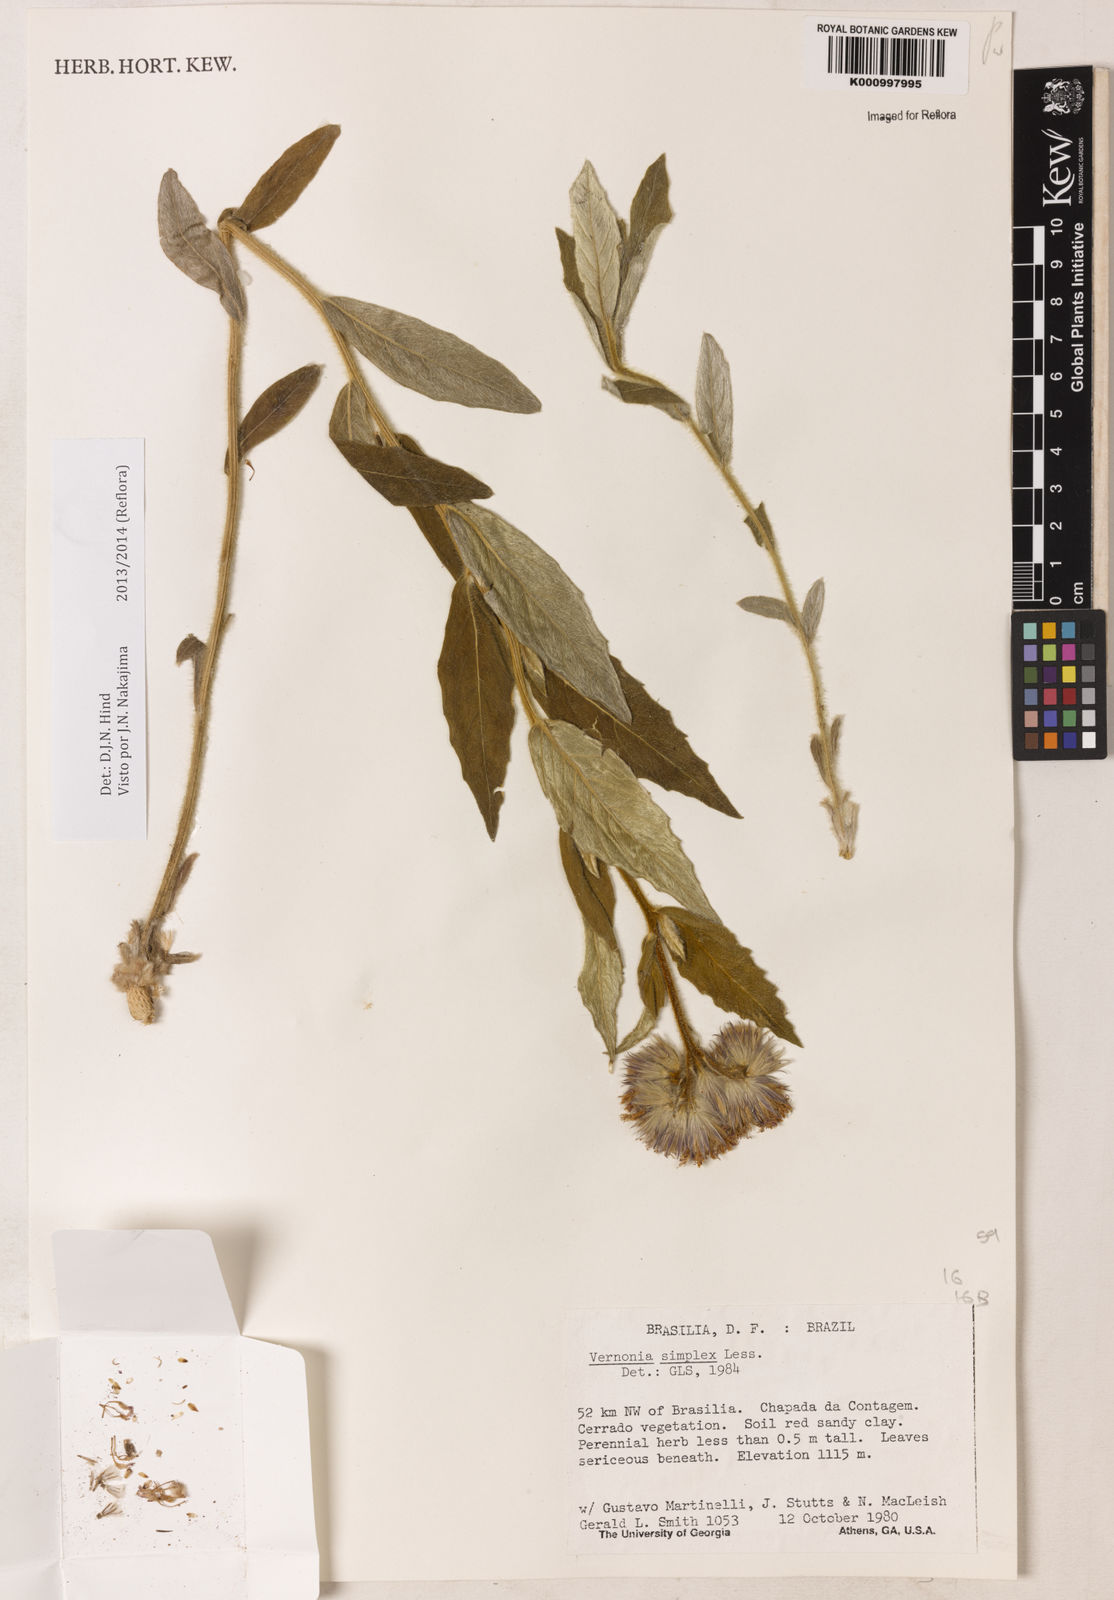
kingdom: Plantae
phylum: Tracheophyta
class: Magnoliopsida
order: Asterales
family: Asteraceae
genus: Chrysolaena
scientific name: Chrysolaena simplex
